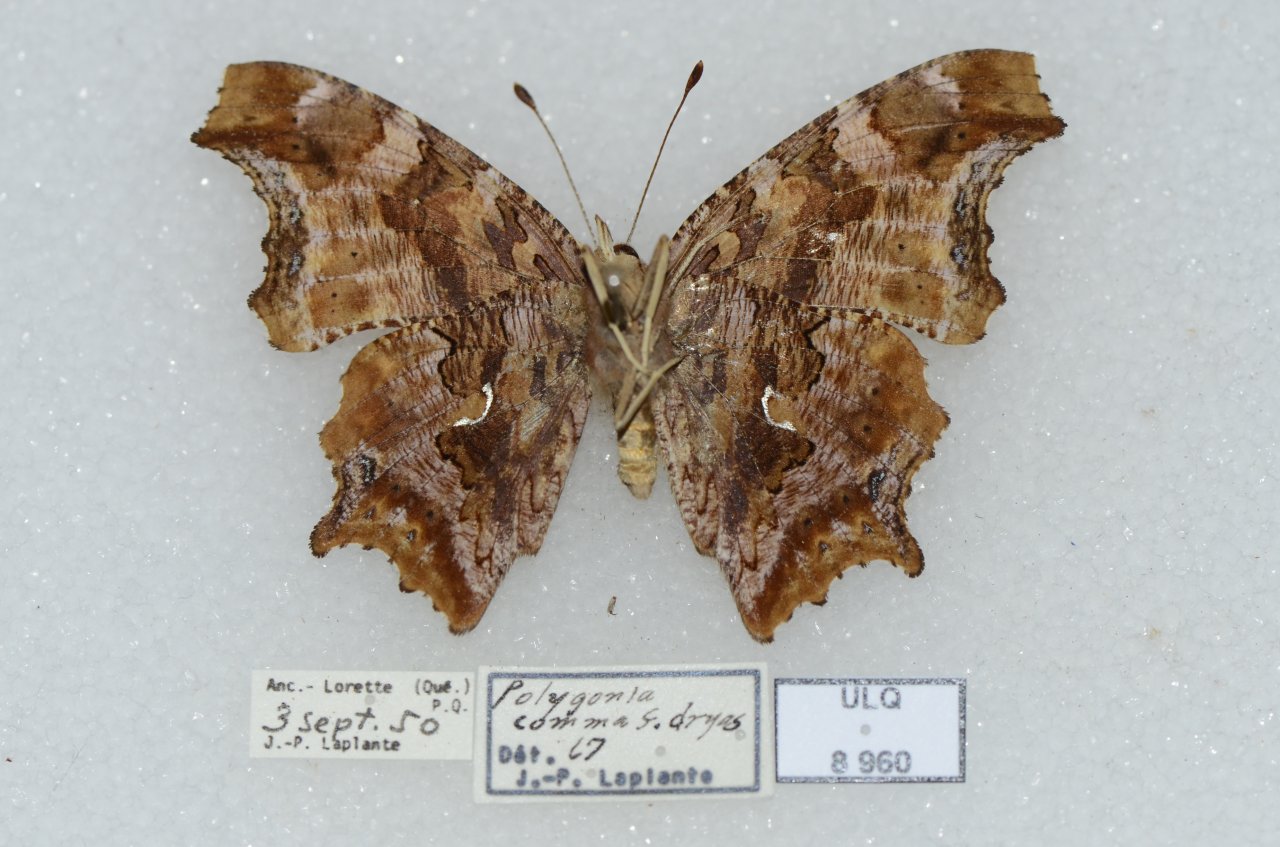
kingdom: Animalia
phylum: Arthropoda
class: Insecta
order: Lepidoptera
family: Nymphalidae
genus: Polygonia
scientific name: Polygonia comma
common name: Eastern Comma
